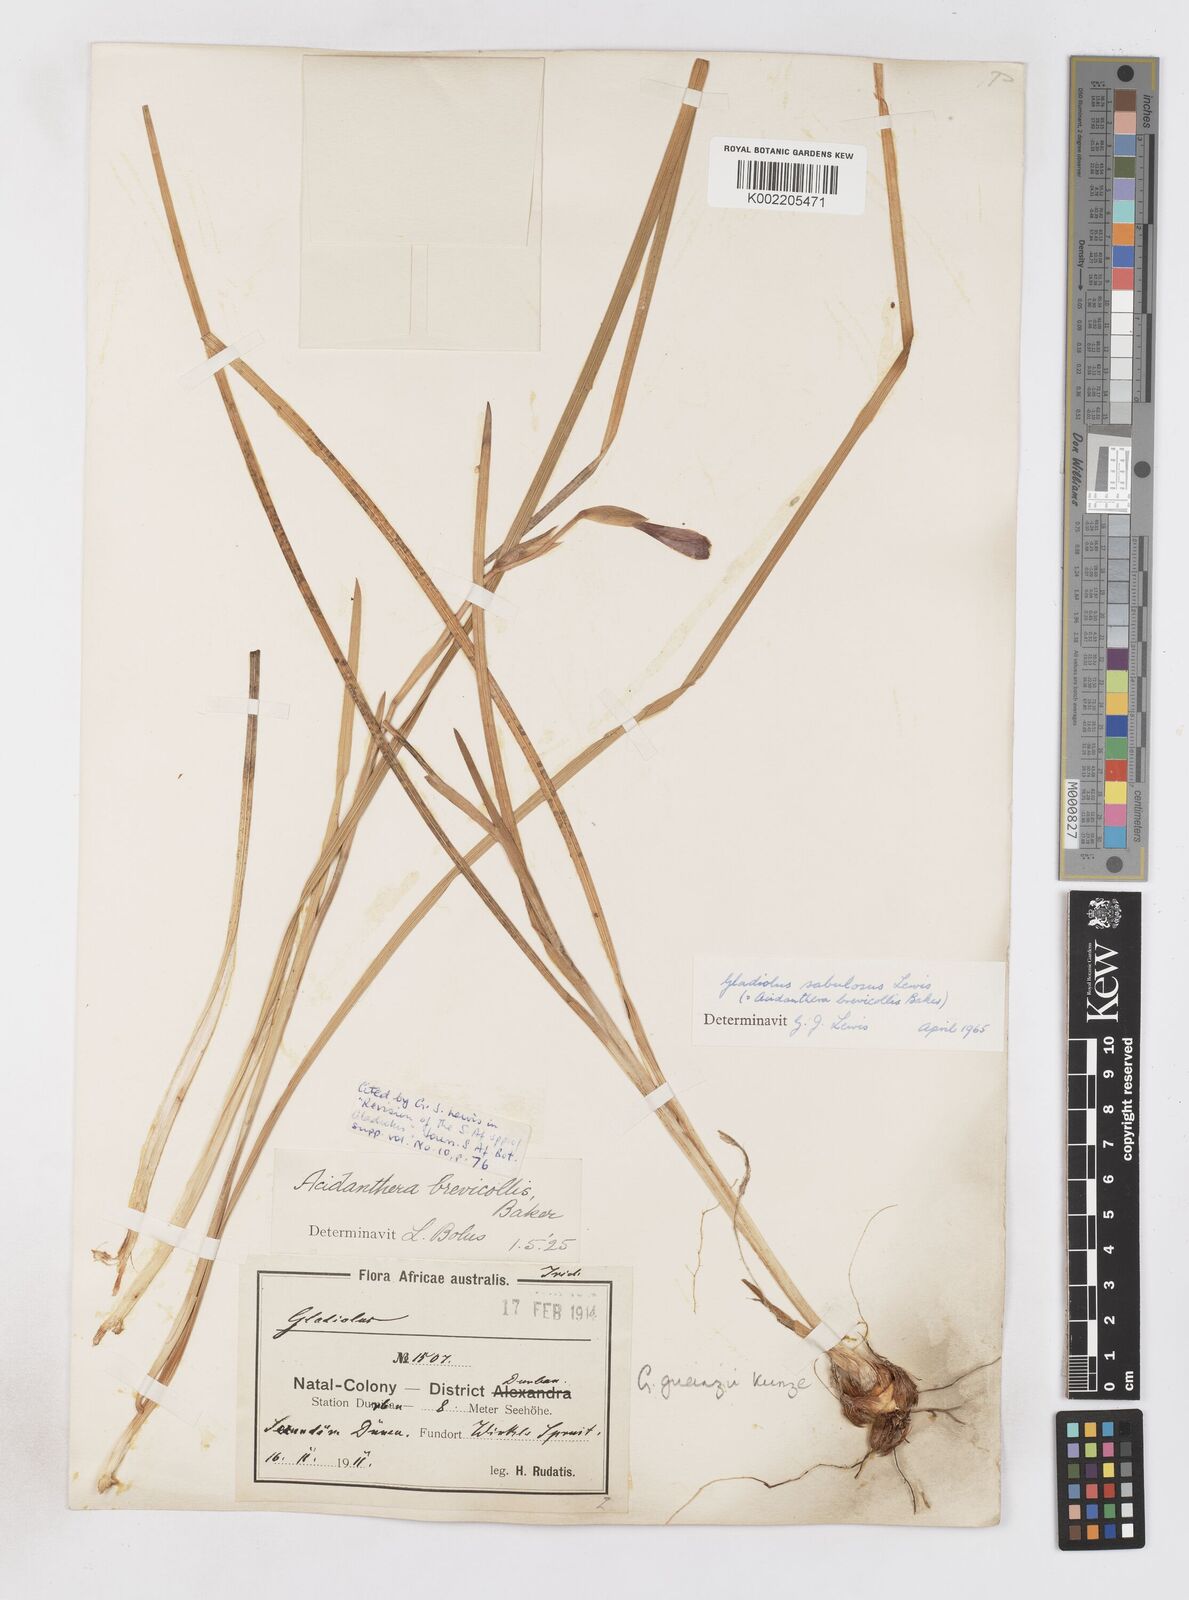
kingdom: Plantae
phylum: Tracheophyta
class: Liliopsida
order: Asparagales
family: Iridaceae
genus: Gladiolus
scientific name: Gladiolus gueinzii
